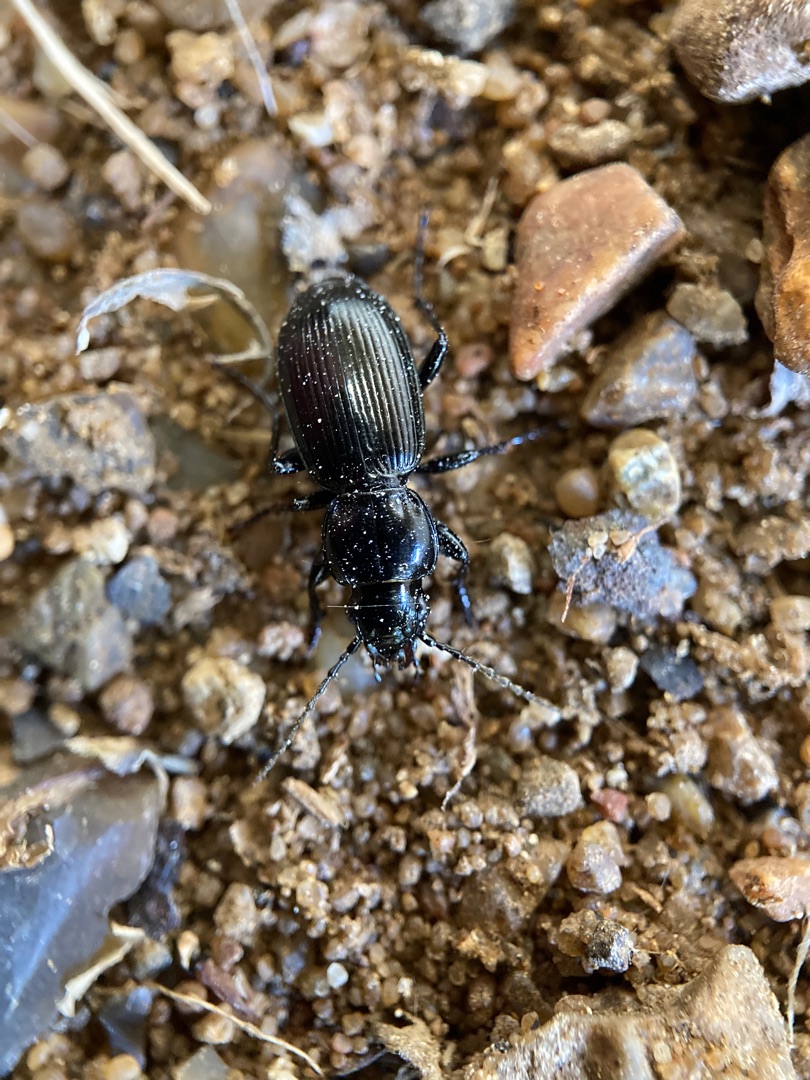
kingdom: Animalia
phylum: Arthropoda
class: Insecta
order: Coleoptera
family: Carabidae
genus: Pterostichus
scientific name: Pterostichus madidus
